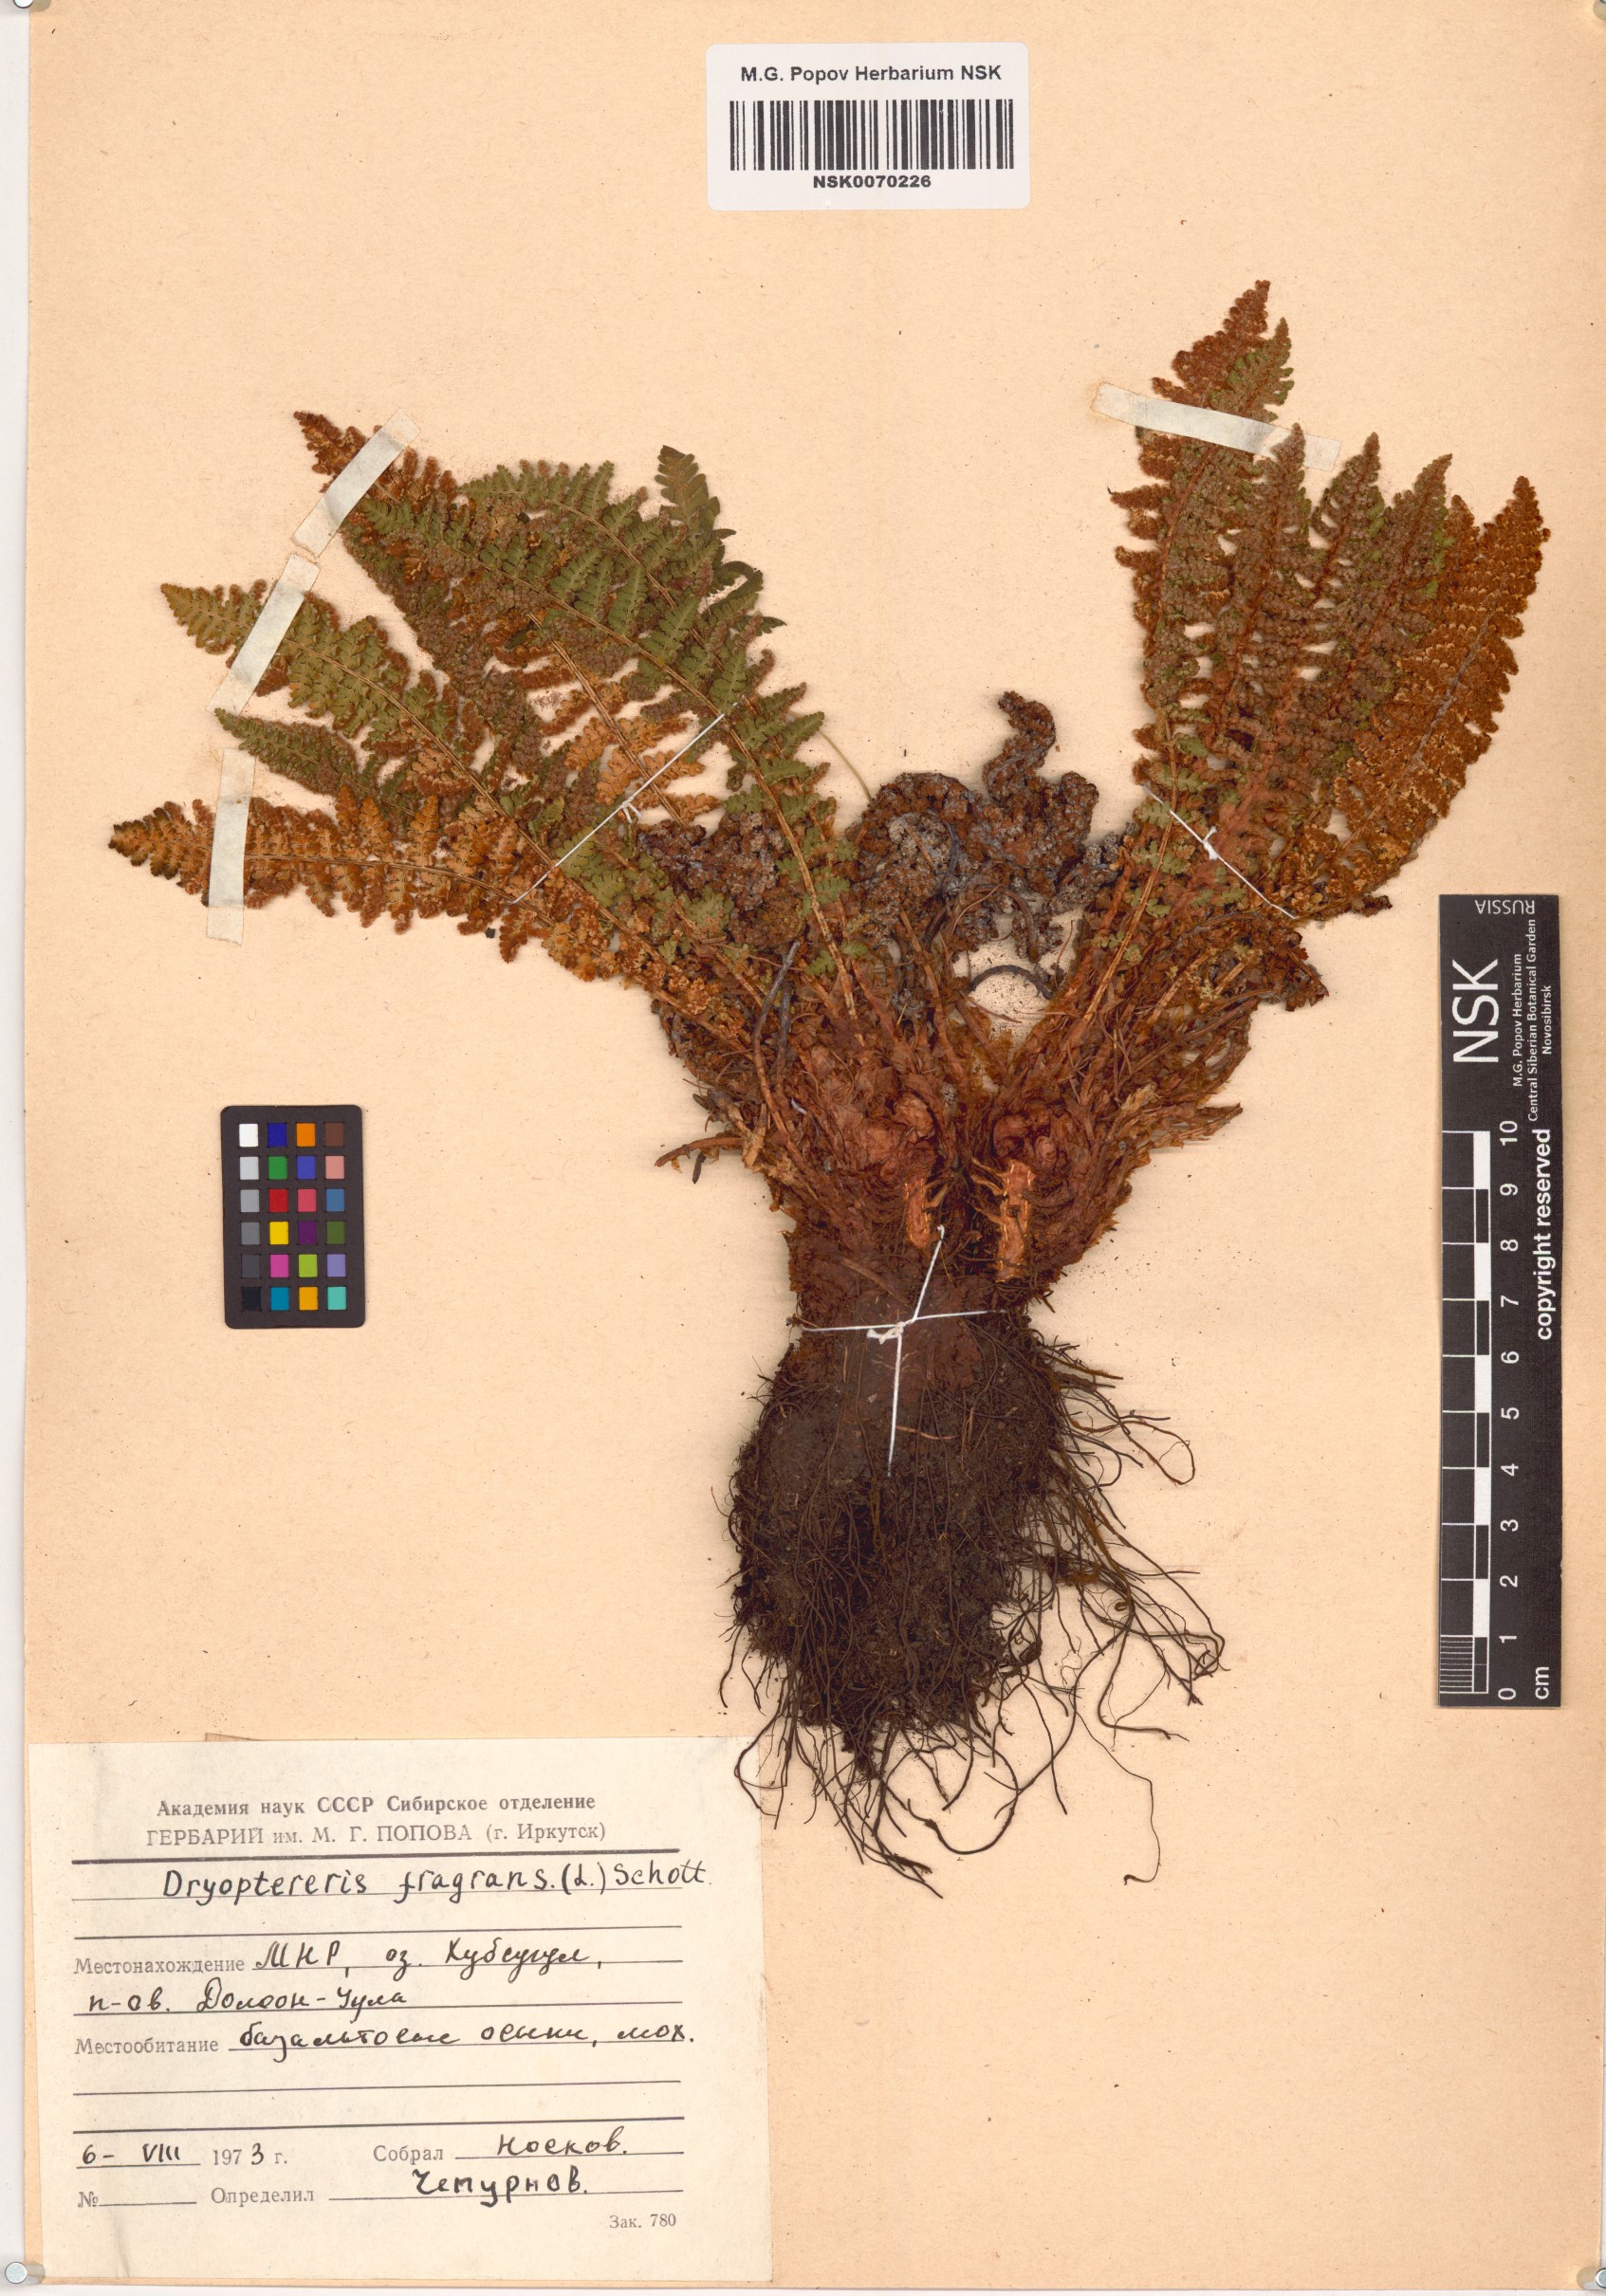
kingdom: Plantae
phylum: Tracheophyta
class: Polypodiopsida
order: Polypodiales
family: Dryopteridaceae
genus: Dryopteris
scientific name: Dryopteris fragrans
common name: Fragrant wood fern
